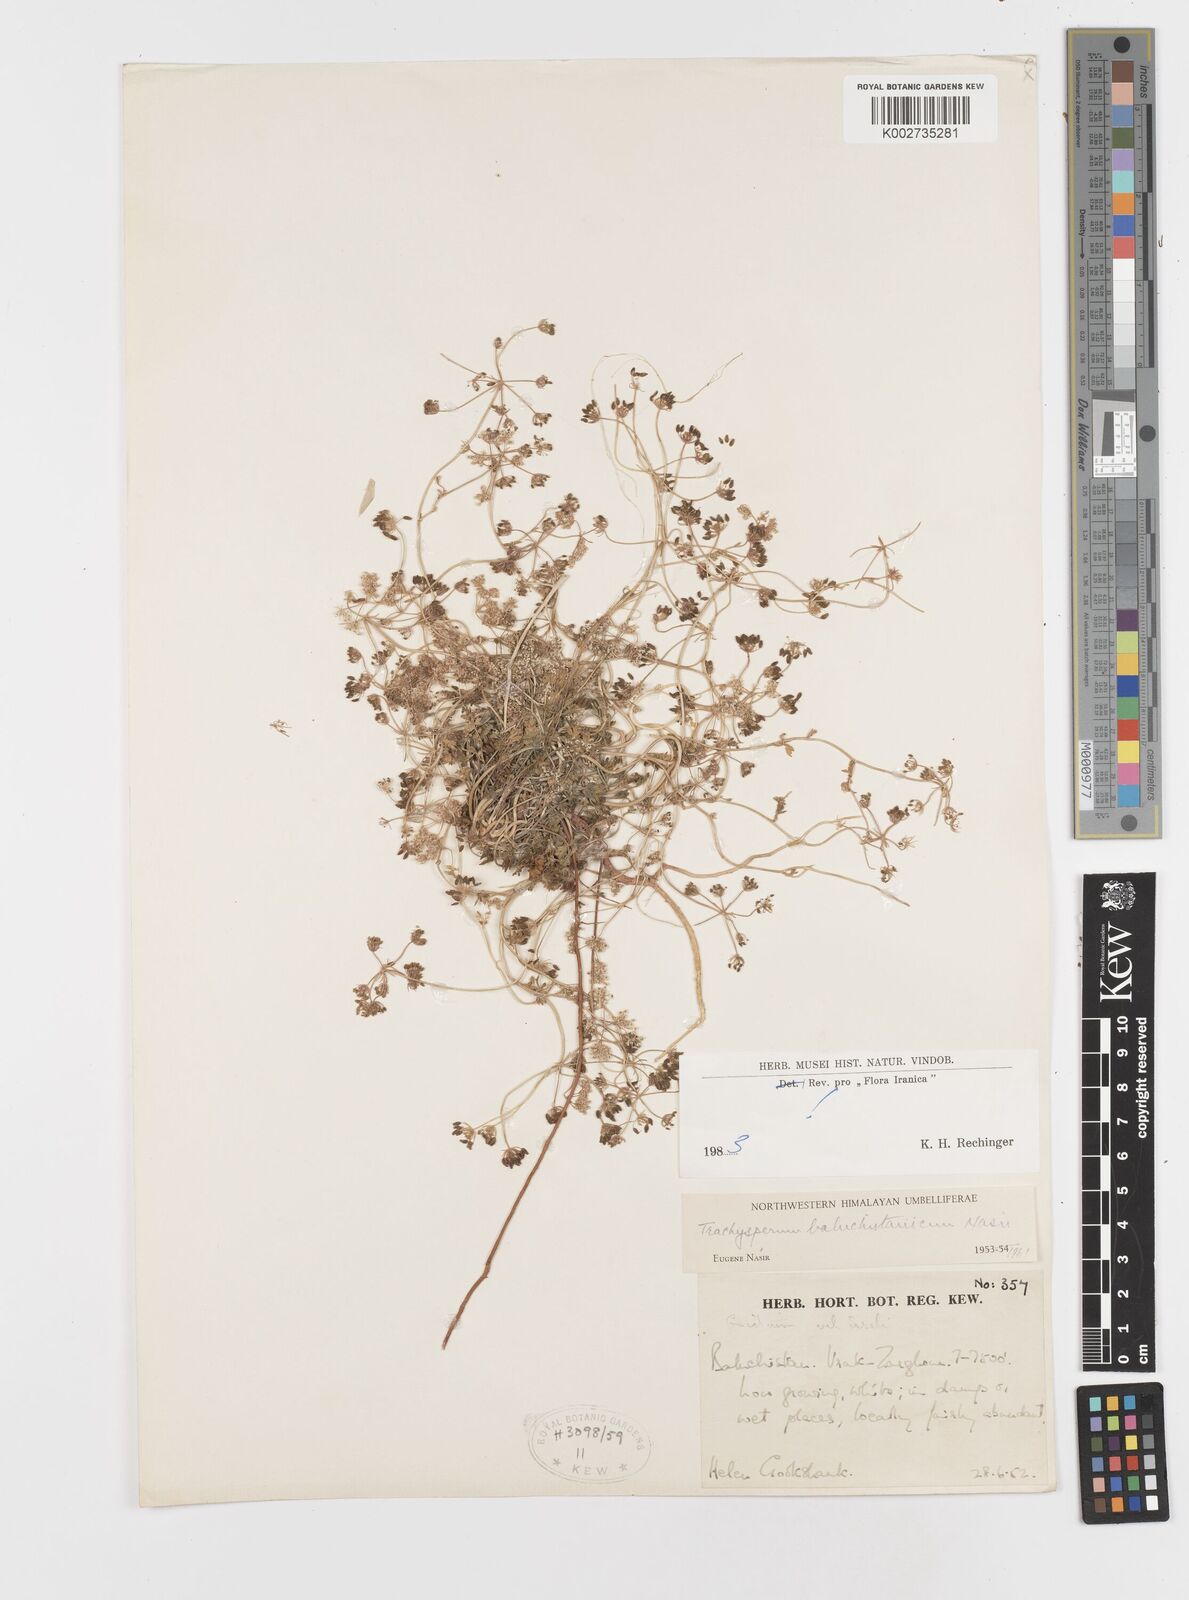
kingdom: Plantae
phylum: Tracheophyta
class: Magnoliopsida
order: Apiales
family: Apiaceae
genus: Trachyspermum
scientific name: Trachyspermum baluchistanicum
